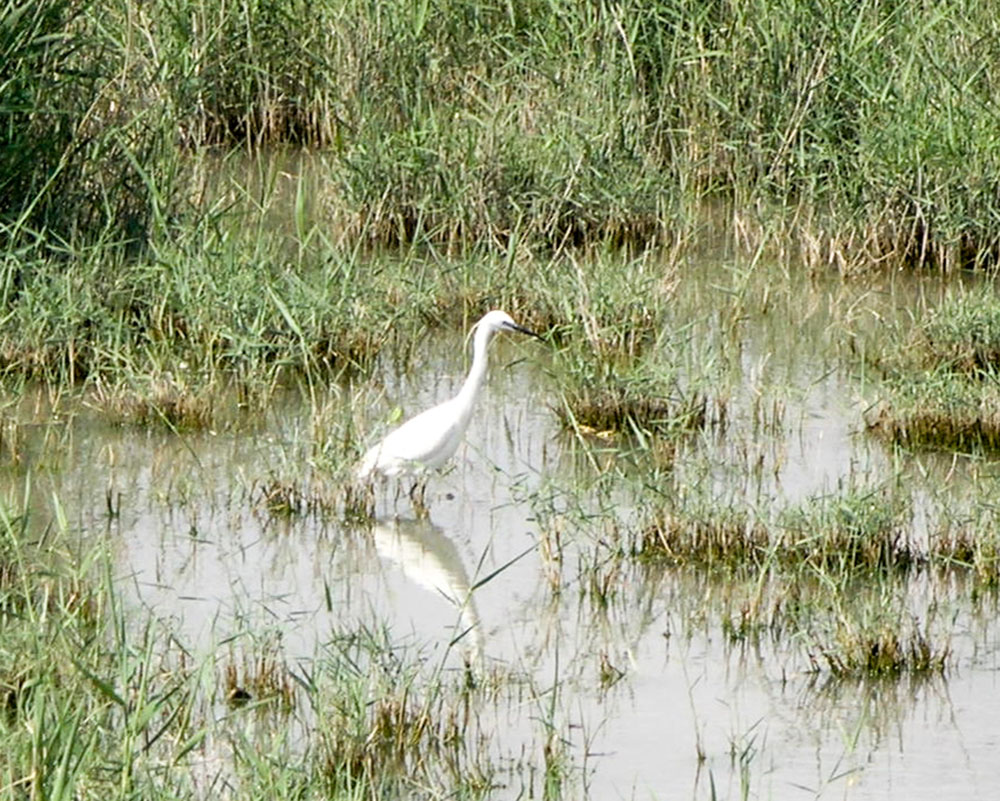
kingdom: Animalia
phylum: Chordata
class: Aves
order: Pelecaniformes
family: Ardeidae
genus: Egretta
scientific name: Egretta garzetta
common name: Little egret
